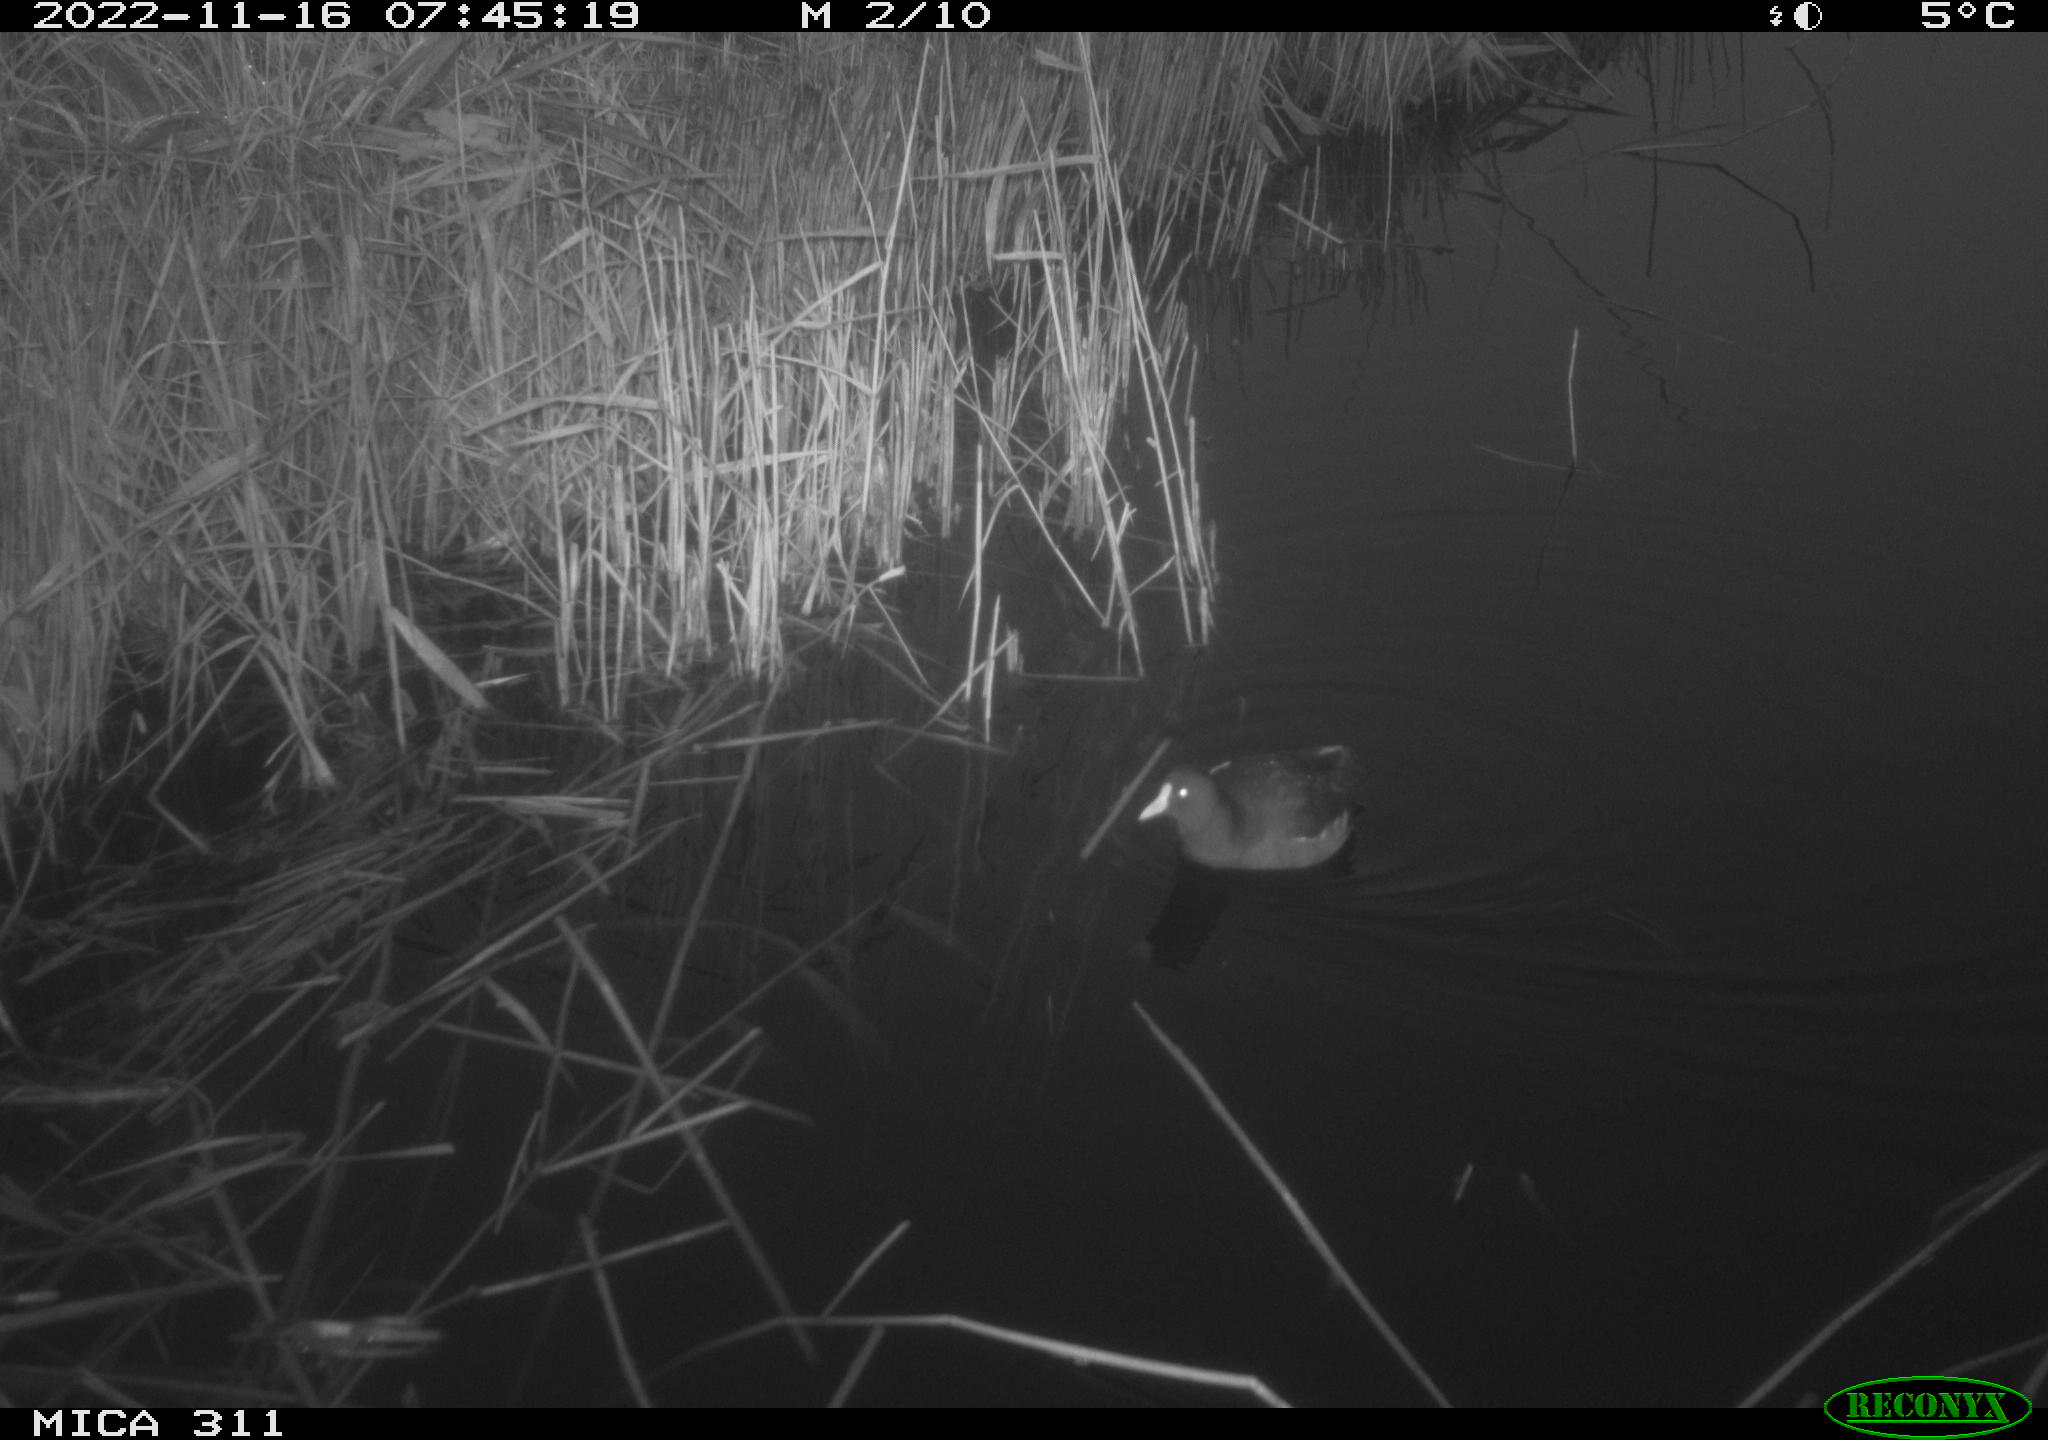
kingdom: Animalia
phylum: Chordata
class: Aves
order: Gruiformes
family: Rallidae
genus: Gallinula
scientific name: Gallinula chloropus
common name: Common moorhen
